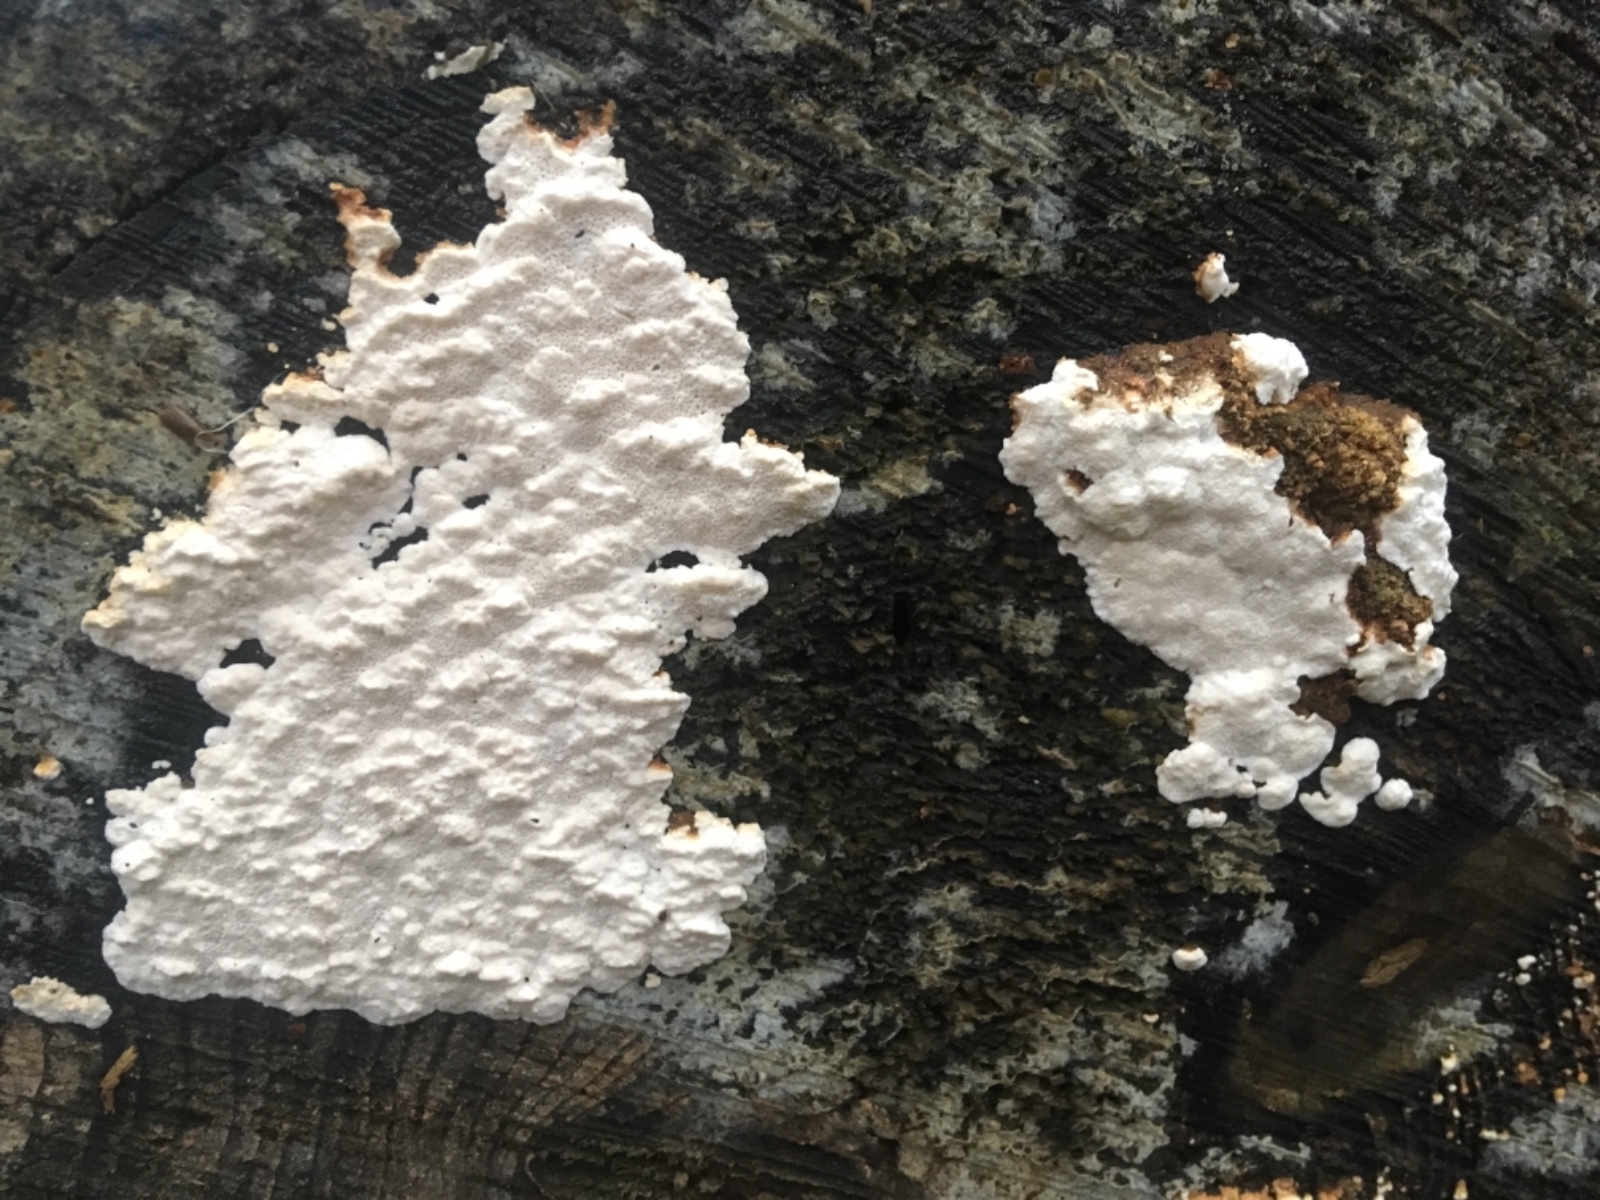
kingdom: Fungi
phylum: Basidiomycota
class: Agaricomycetes
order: Polyporales
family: Fomitopsidaceae
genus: Neoantrodia
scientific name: Neoantrodia serialis
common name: række-sejporesvamp
